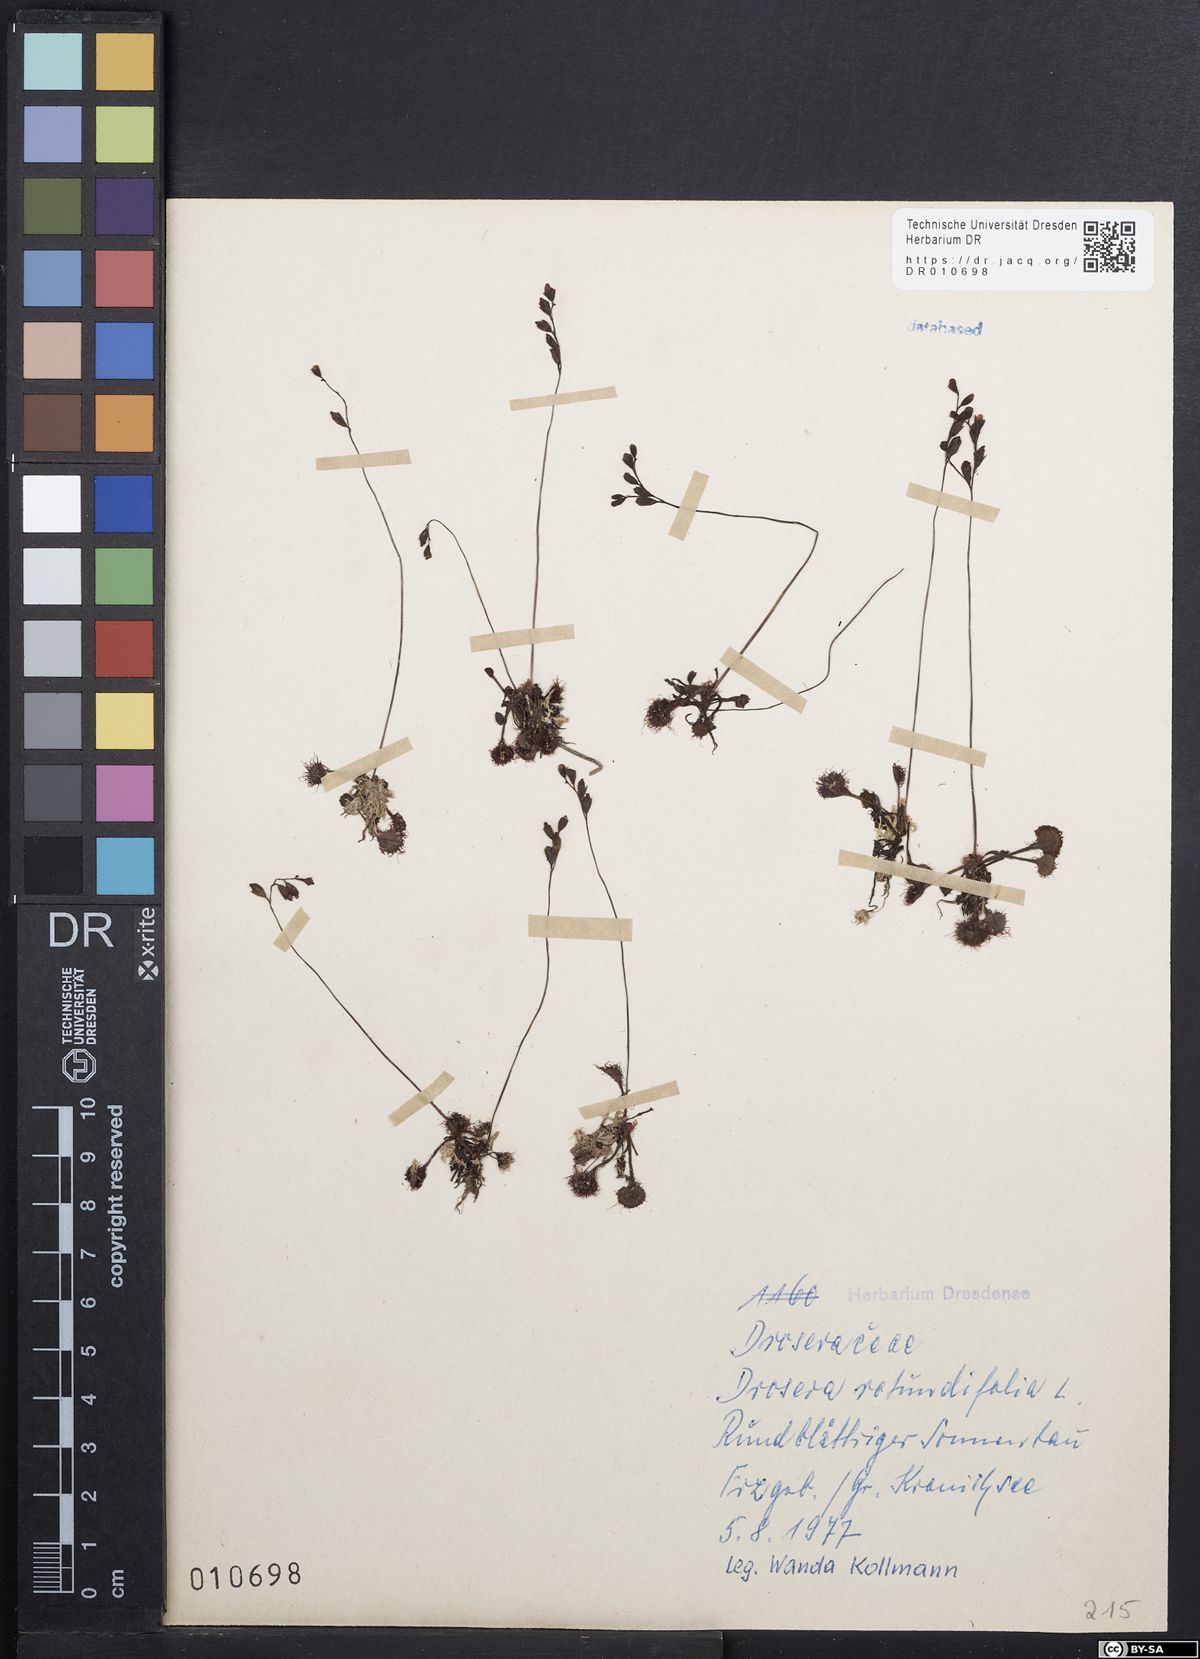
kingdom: Plantae
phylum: Tracheophyta
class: Magnoliopsida
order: Caryophyllales
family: Droseraceae
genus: Drosera
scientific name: Drosera rotundifolia
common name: Round-leaved sundew
